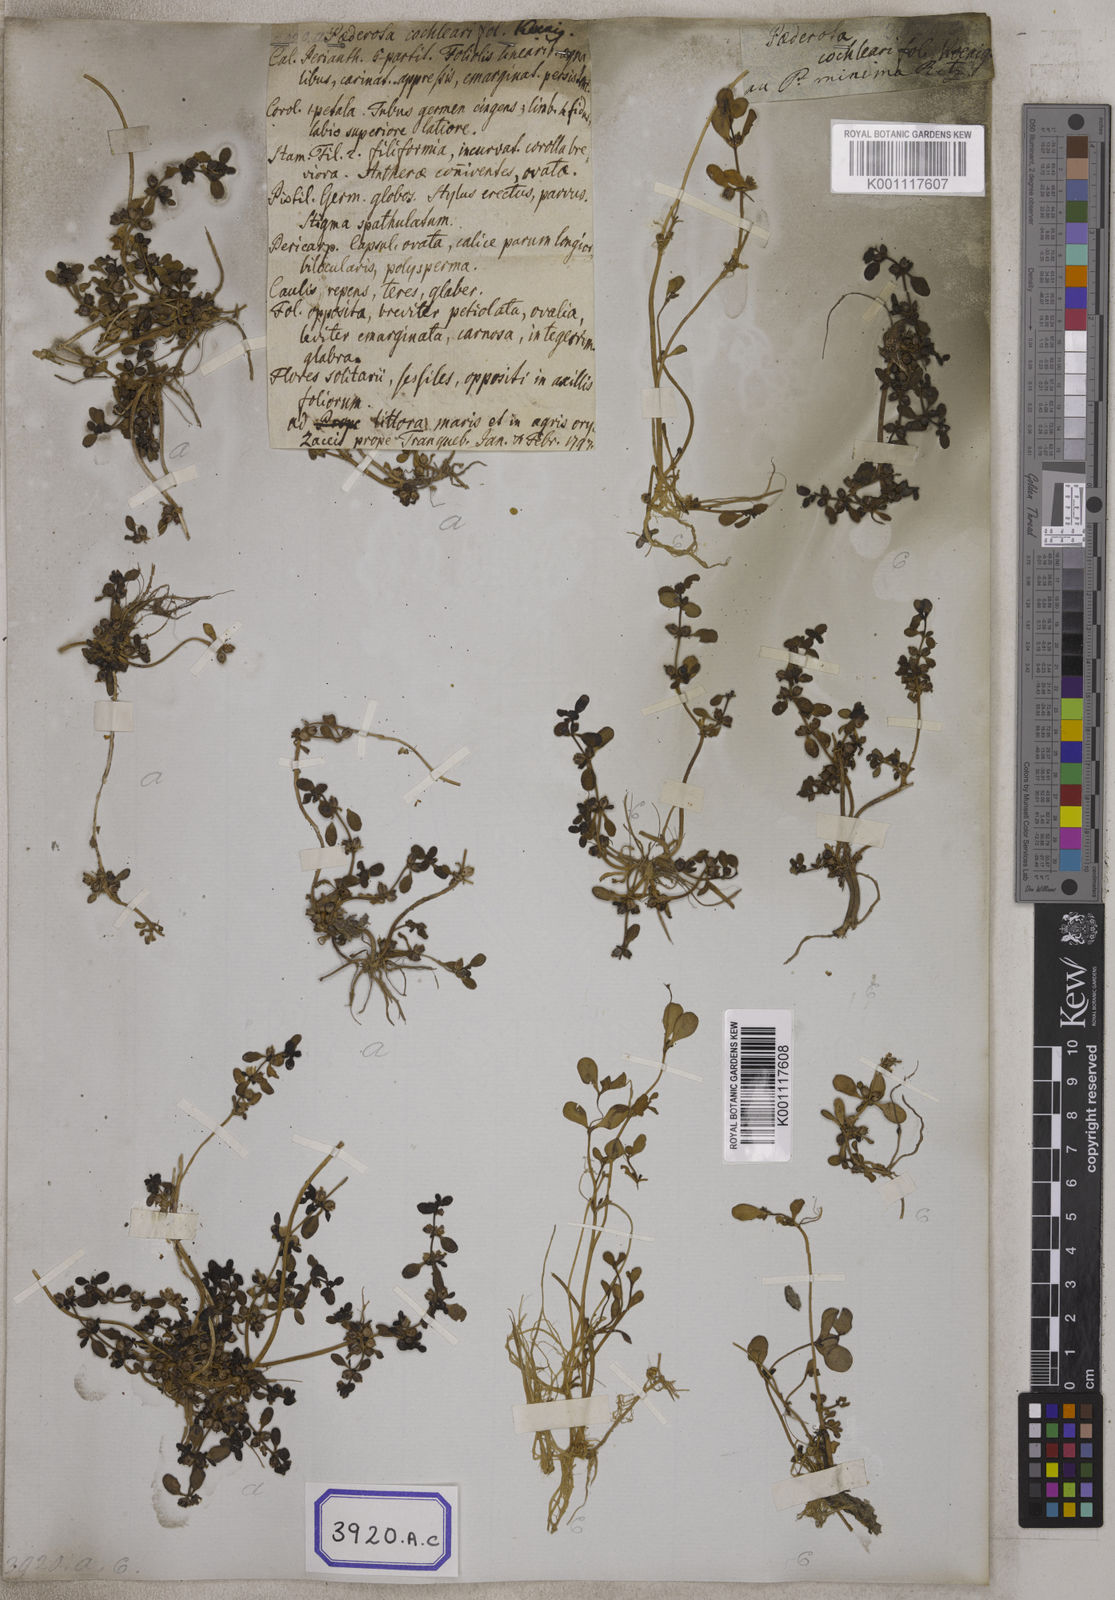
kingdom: Plantae
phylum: Tracheophyta
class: Magnoliopsida
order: Lamiales
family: Plantaginaceae
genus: Paederota
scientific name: Paederota
